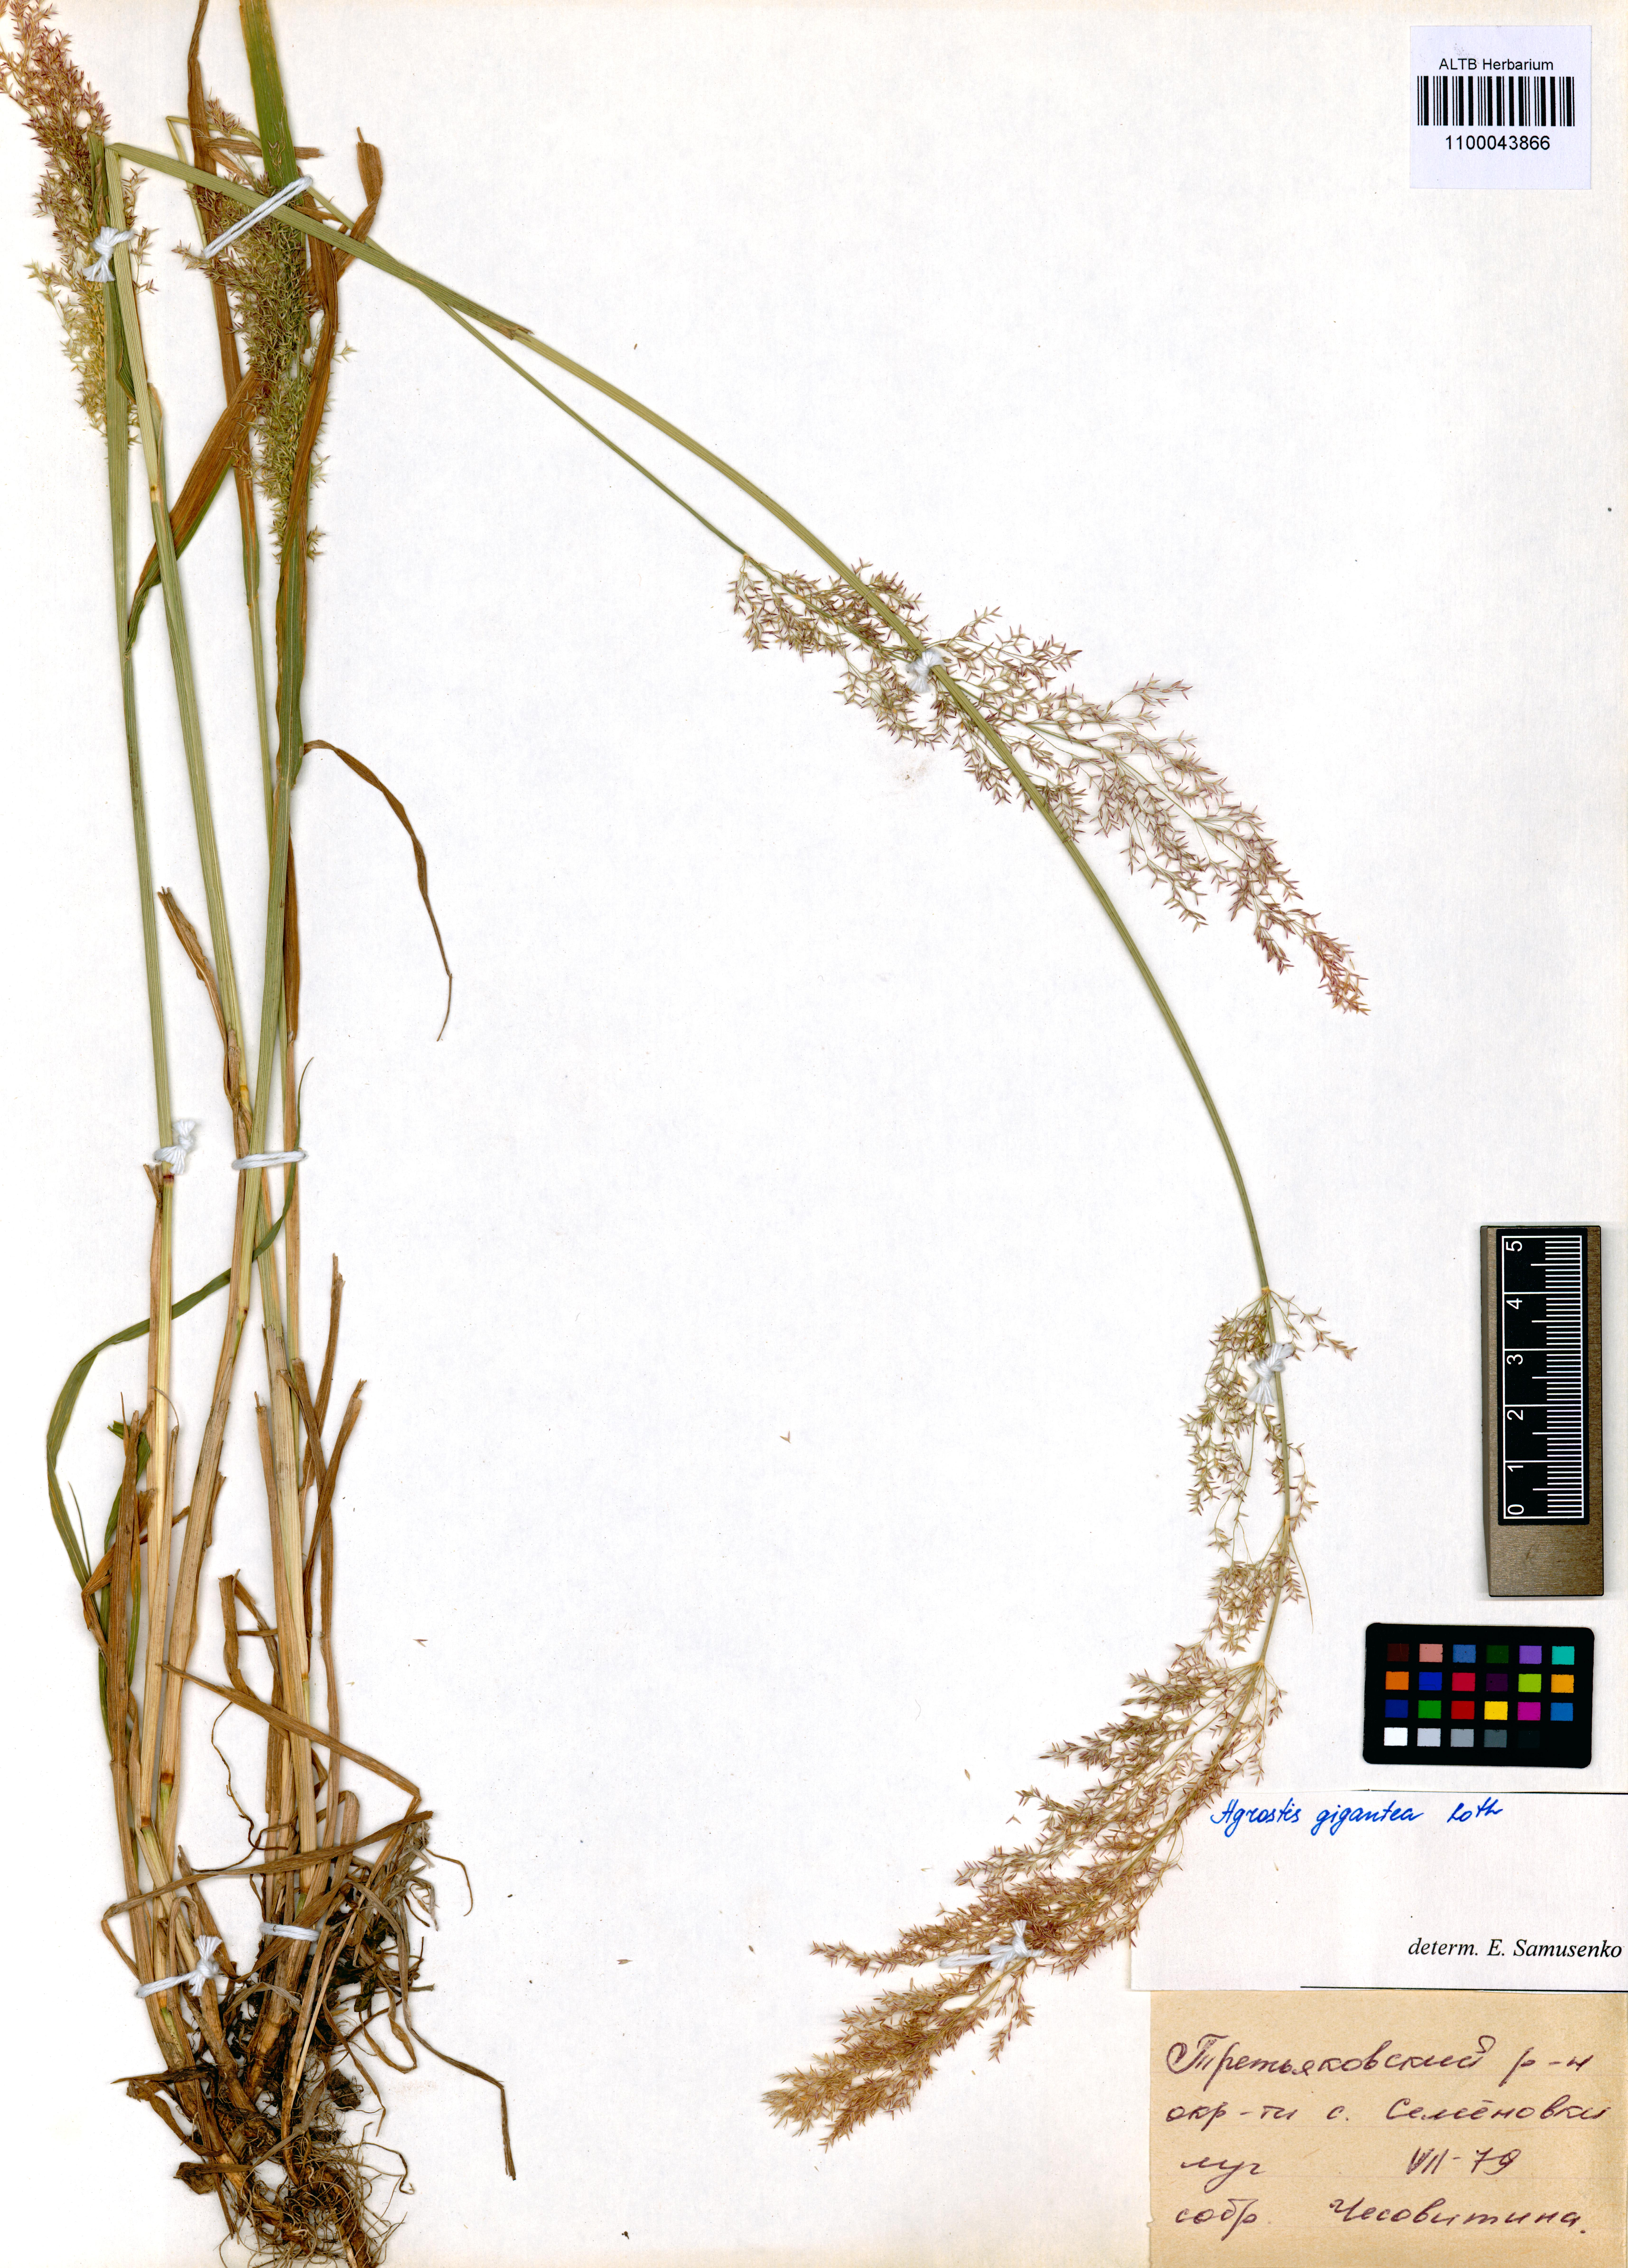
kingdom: Plantae
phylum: Tracheophyta
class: Liliopsida
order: Poales
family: Poaceae
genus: Agrostis
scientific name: Agrostis gigantea
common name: Black bent
